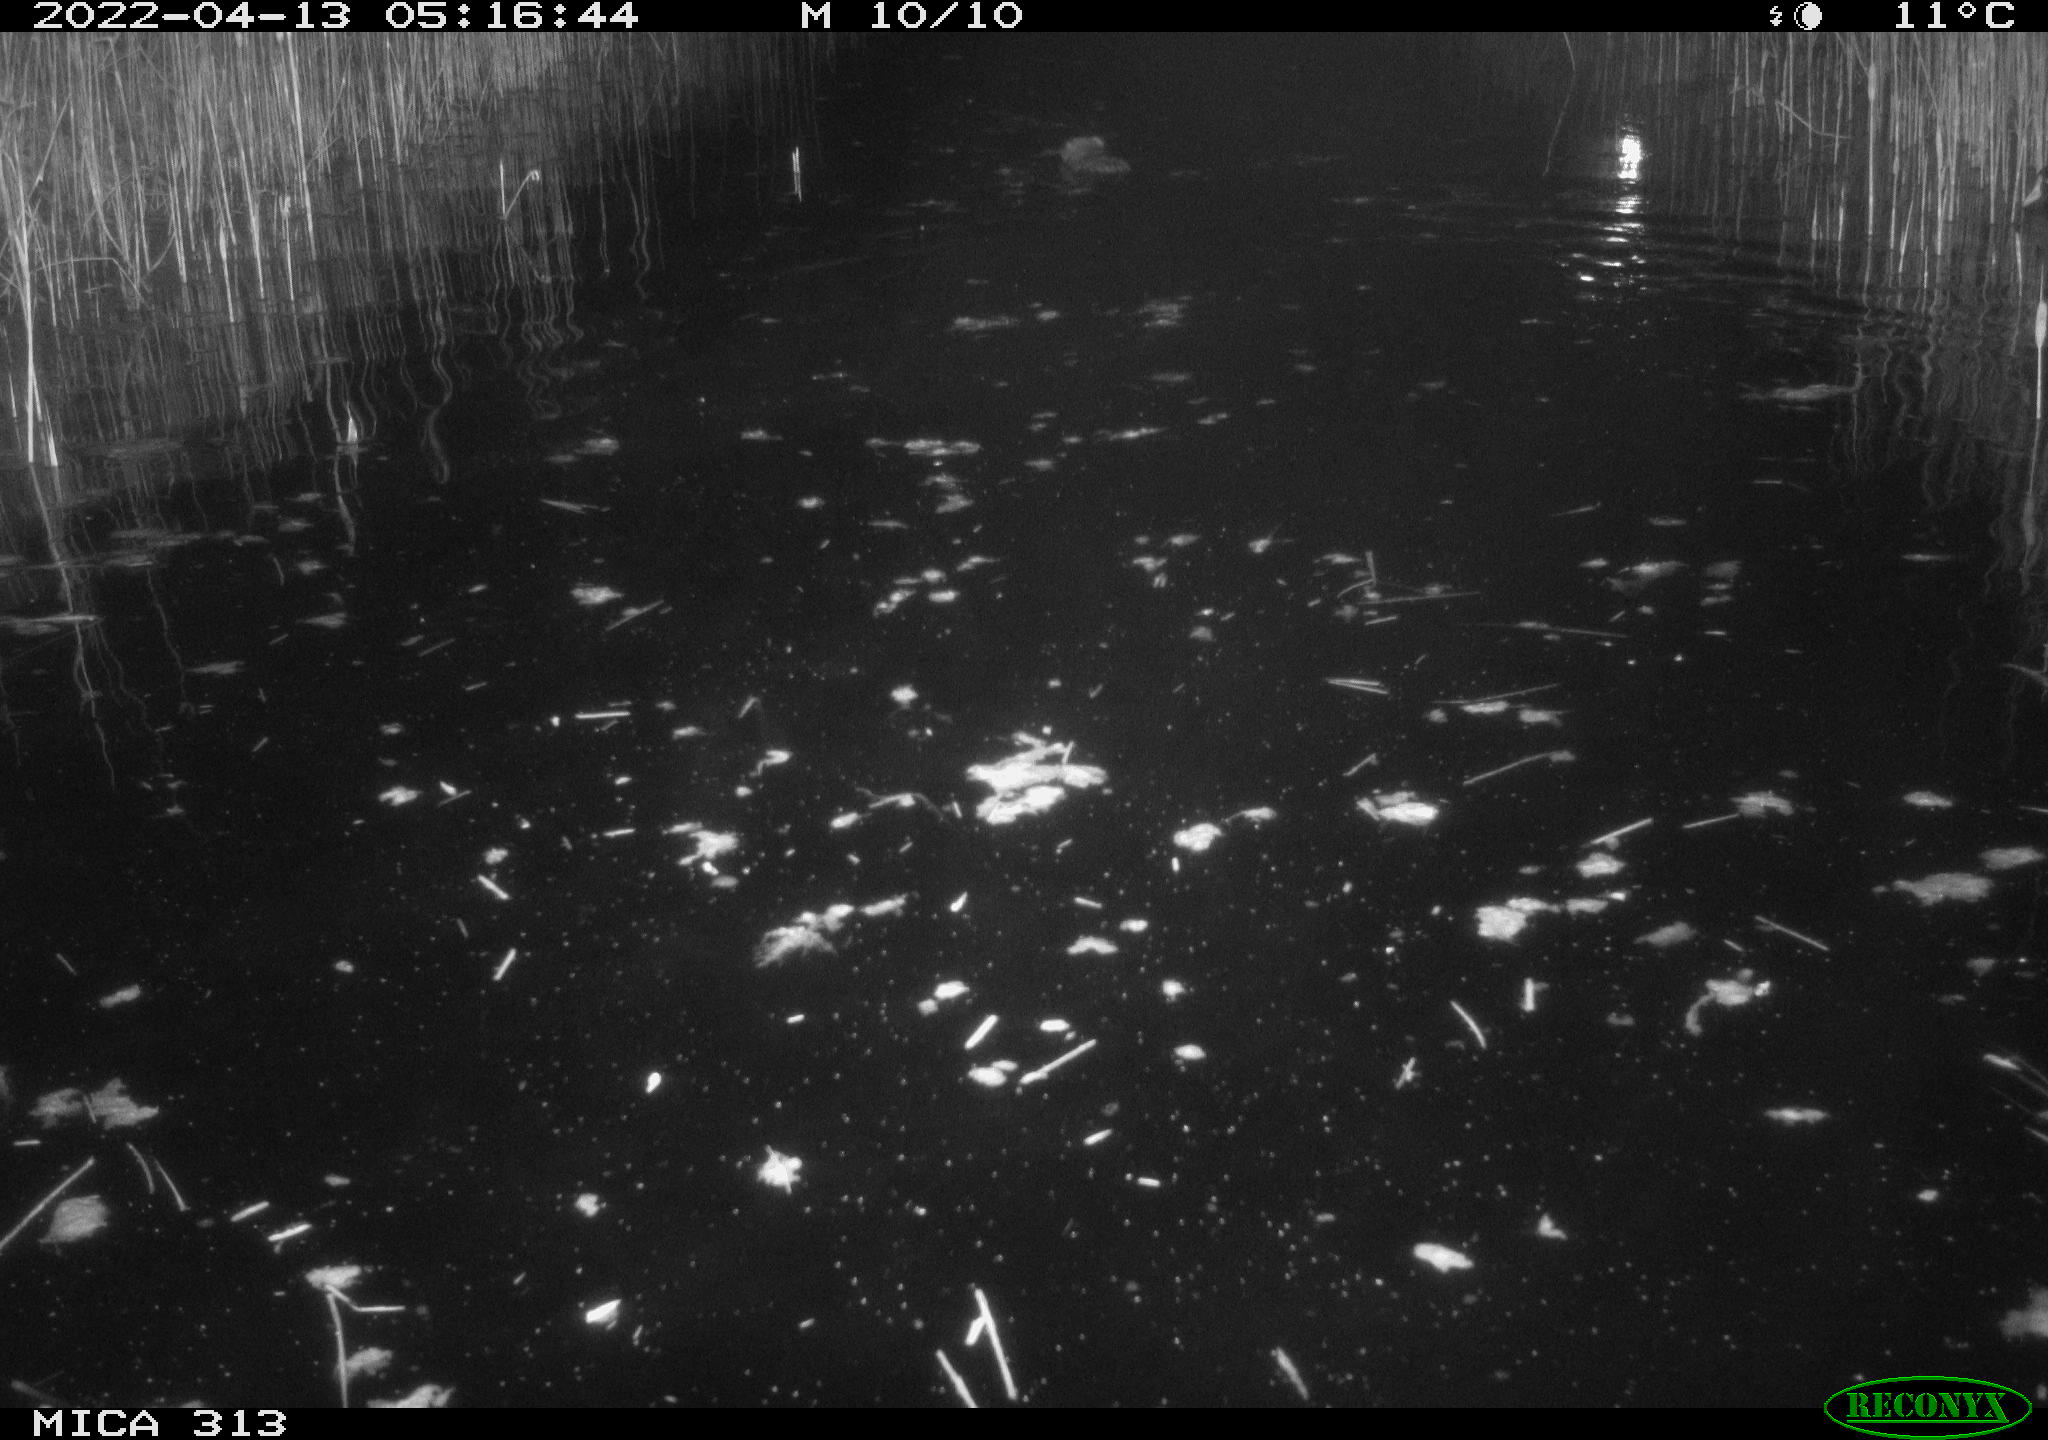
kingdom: Animalia
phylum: Chordata
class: Mammalia
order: Rodentia
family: Cricetidae
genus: Ondatra
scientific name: Ondatra zibethicus
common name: Muskrat
